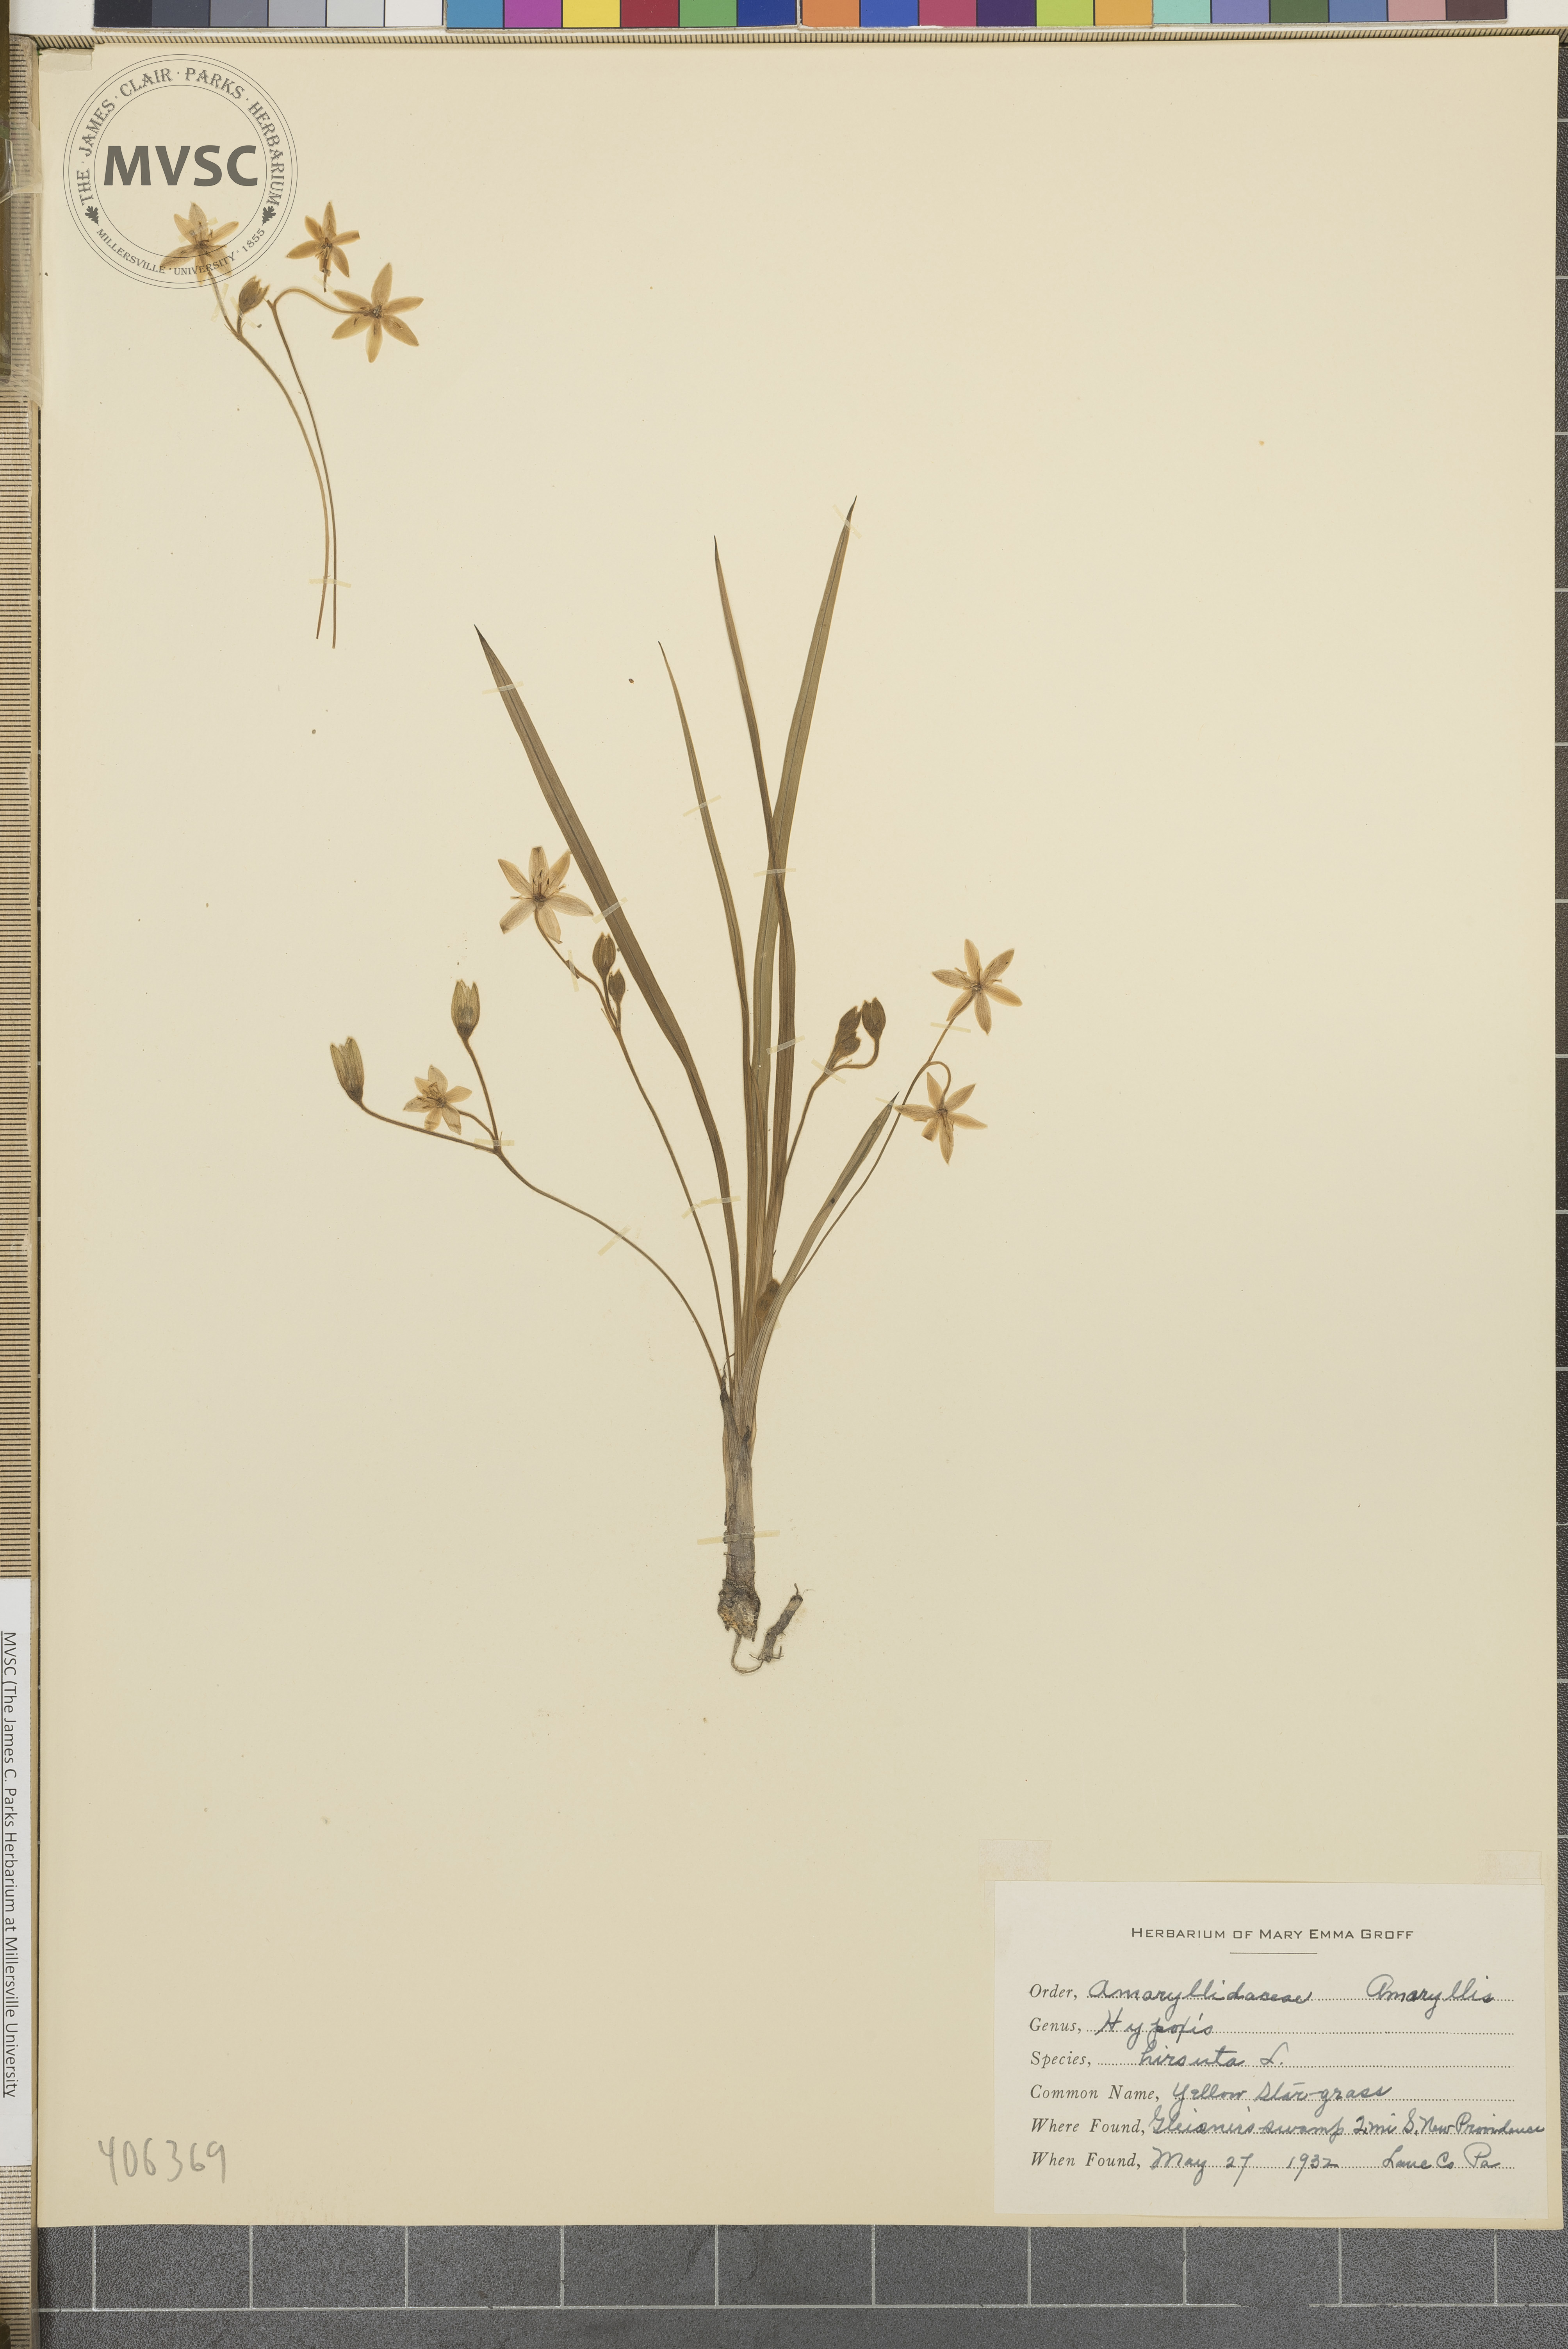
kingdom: Plantae
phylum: Tracheophyta
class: Liliopsida
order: Asparagales
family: Hypoxidaceae
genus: Hypoxis
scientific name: Hypoxis hirsuta
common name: Yellow Star-grass
